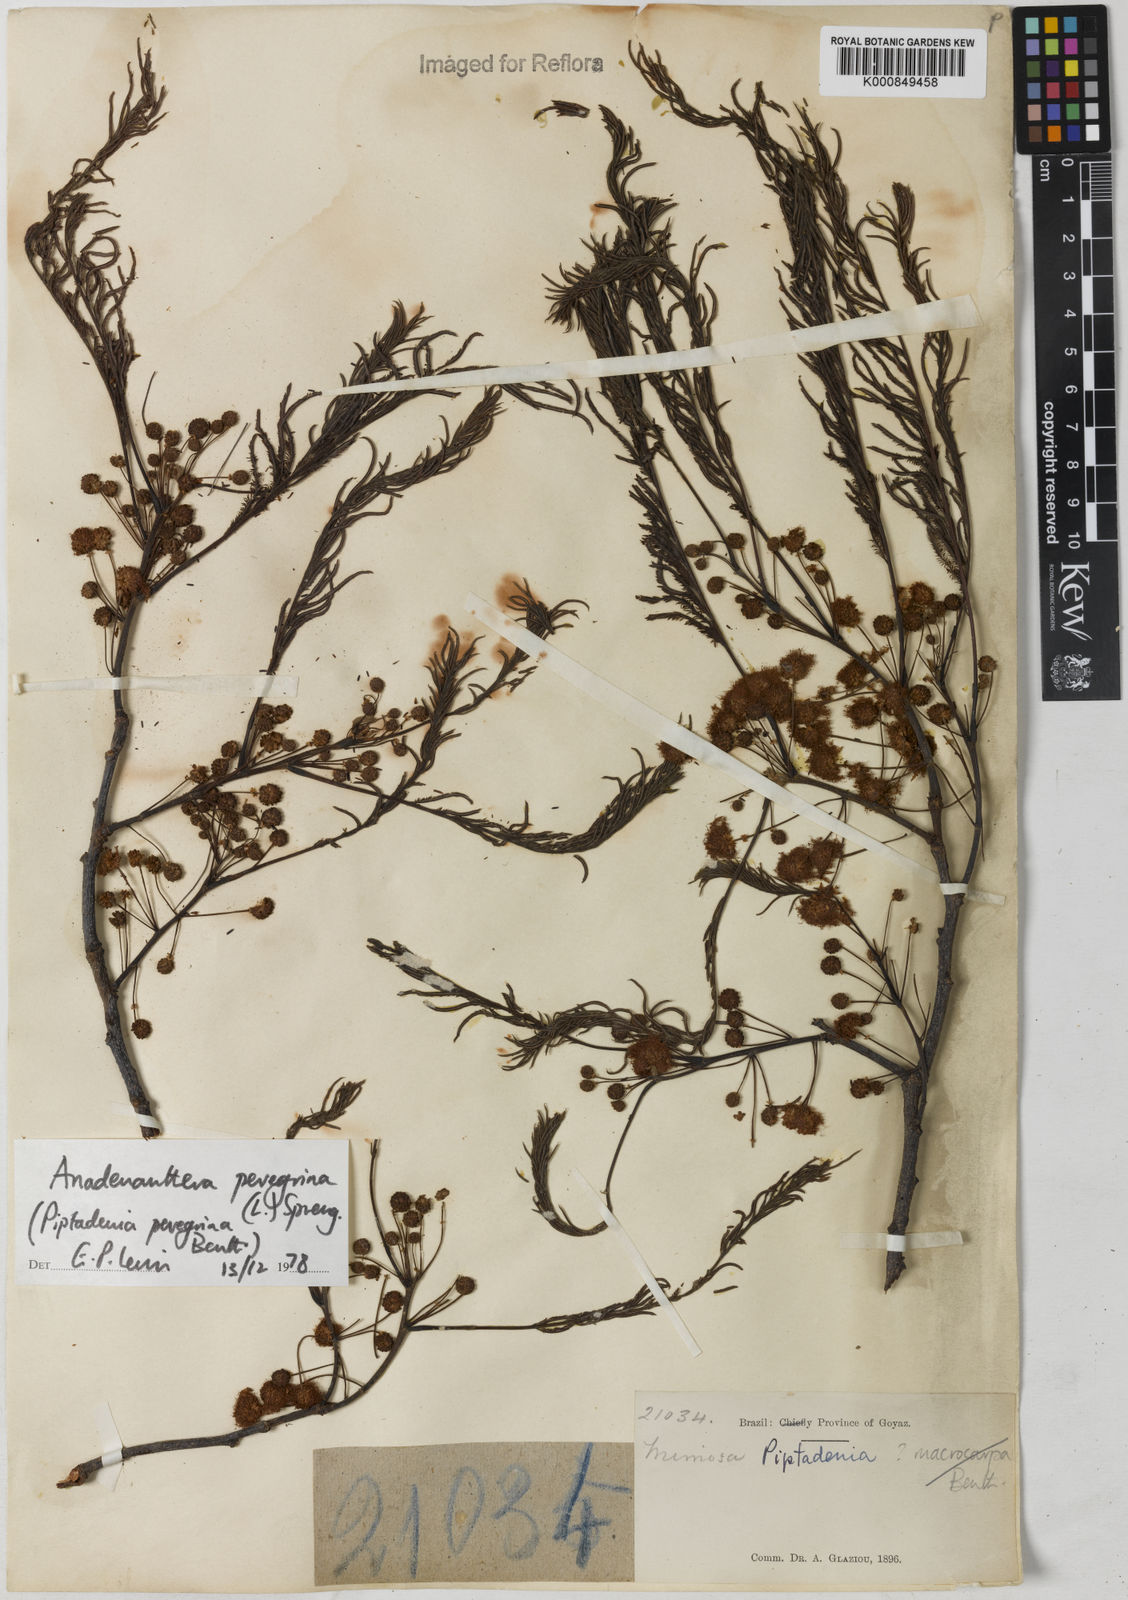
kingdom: Plantae
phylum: Tracheophyta
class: Magnoliopsida
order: Fabales
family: Fabaceae
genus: Anadenanthera
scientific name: Anadenanthera peregrina
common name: Cohoba
